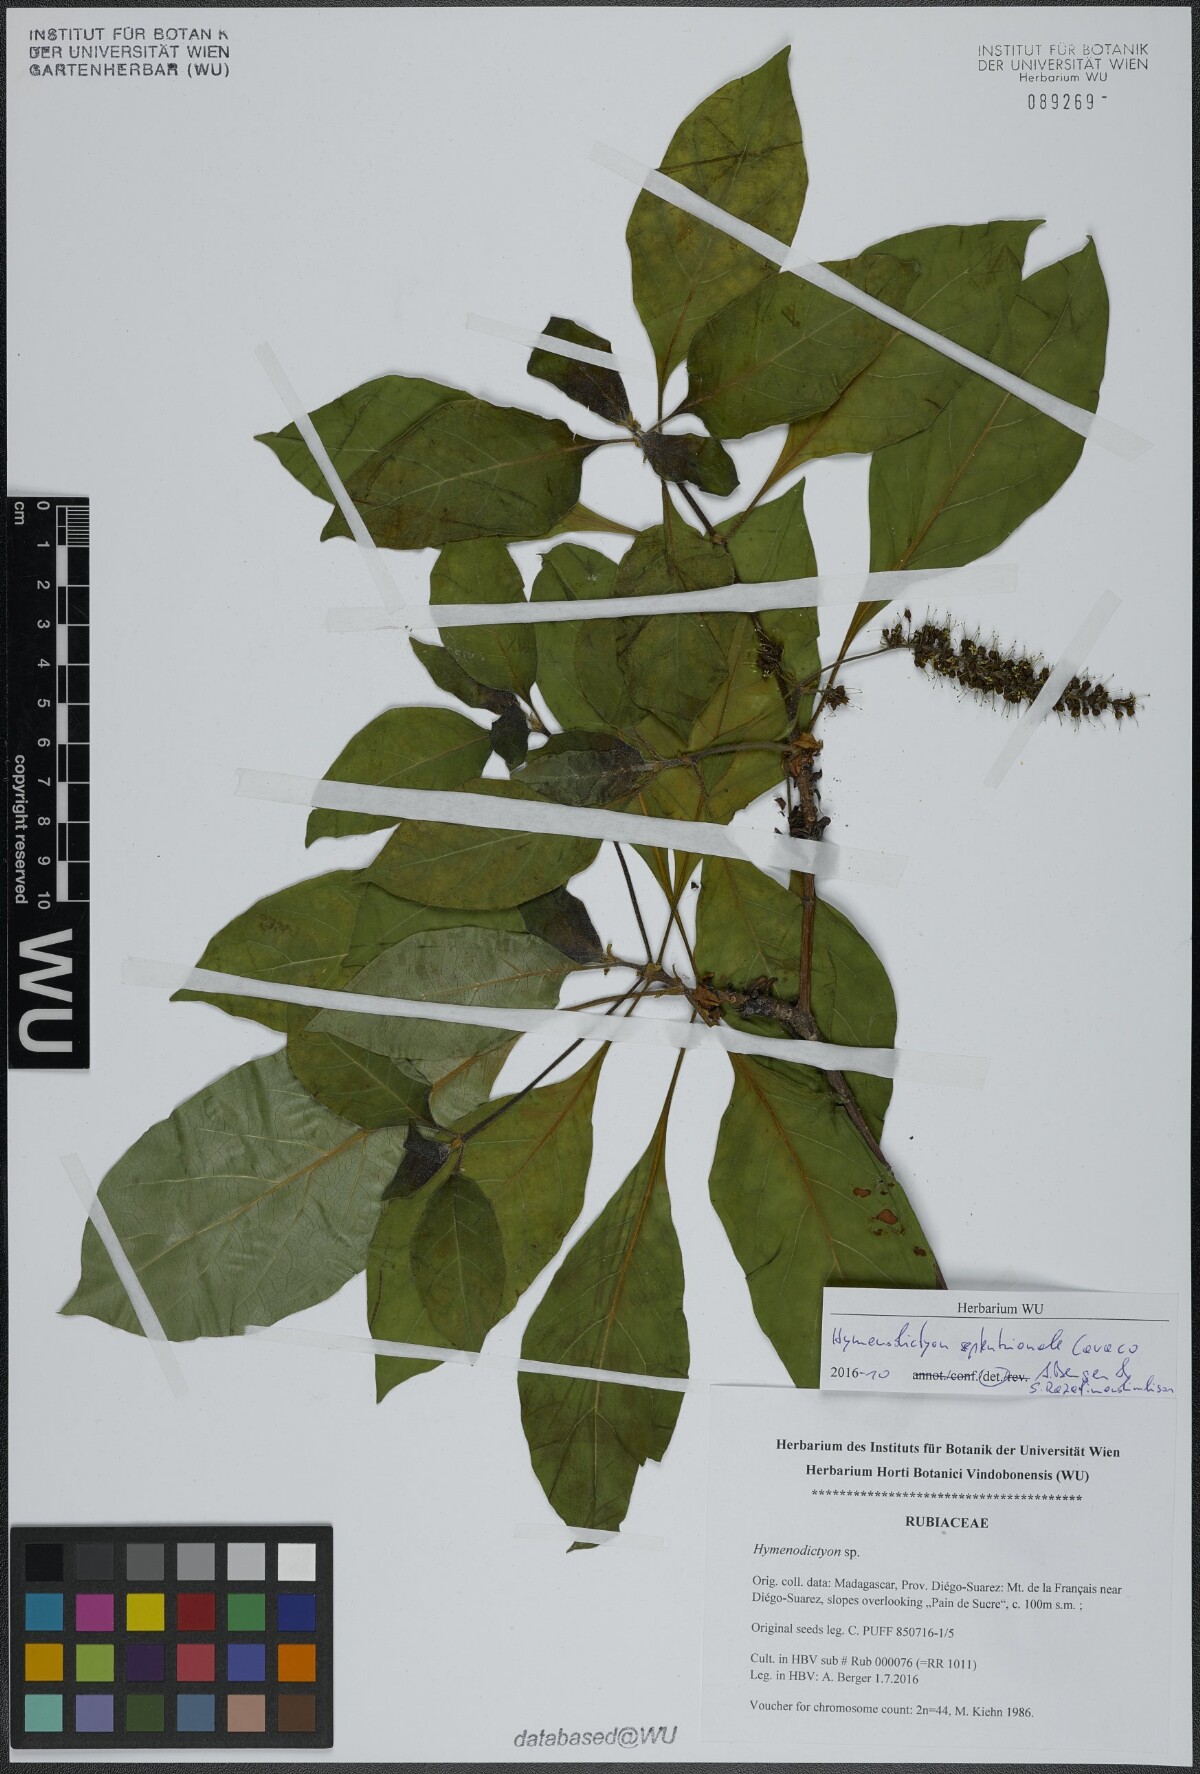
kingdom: Plantae
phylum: Tracheophyta
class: Magnoliopsida
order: Gentianales
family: Rubiaceae
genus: Hymenodictyon
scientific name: Hymenodictyon septentrionale
